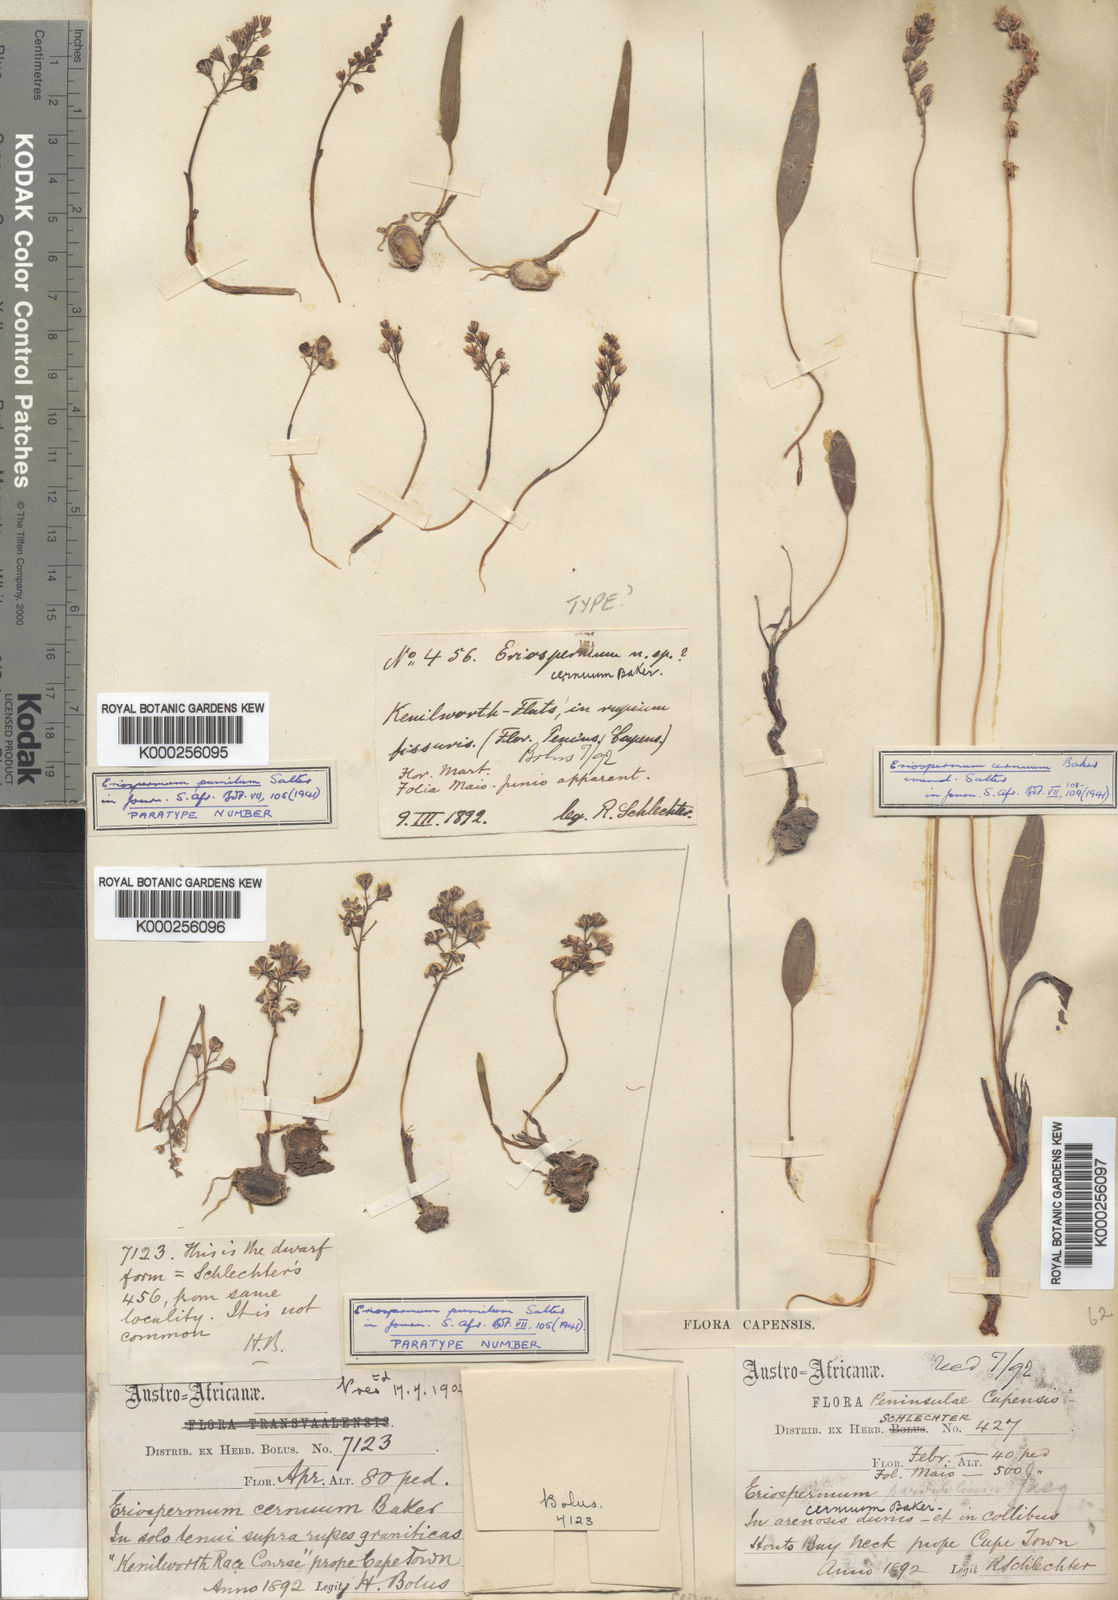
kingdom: Plantae
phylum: Tracheophyta
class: Liliopsida
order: Asparagales
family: Asparagaceae
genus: Eriospermum
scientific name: Eriospermum cernuum
